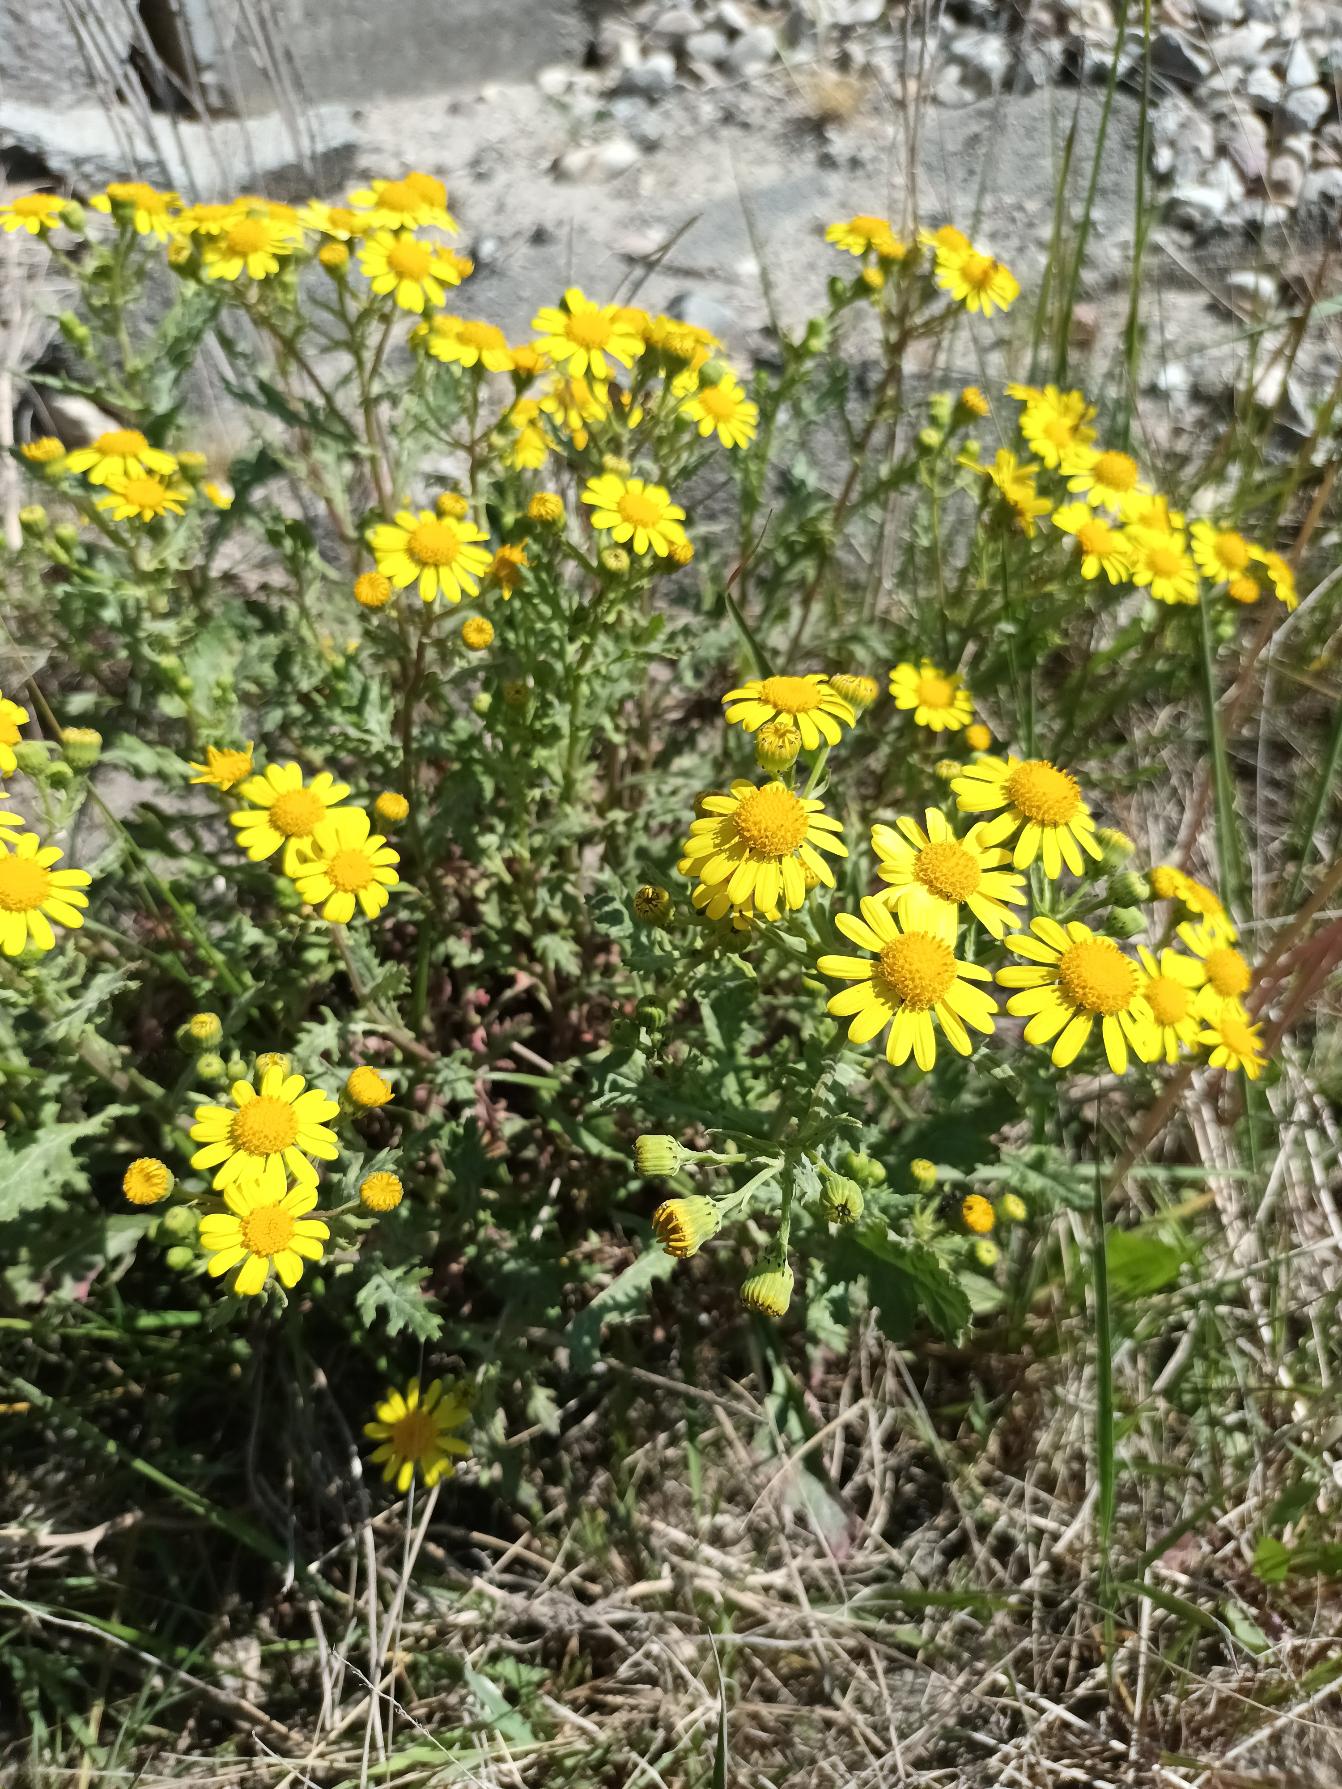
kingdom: Plantae
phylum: Tracheophyta
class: Magnoliopsida
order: Asterales
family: Asteraceae
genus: Senecio
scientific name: Senecio squalidus
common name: Italiensk brandbæger
